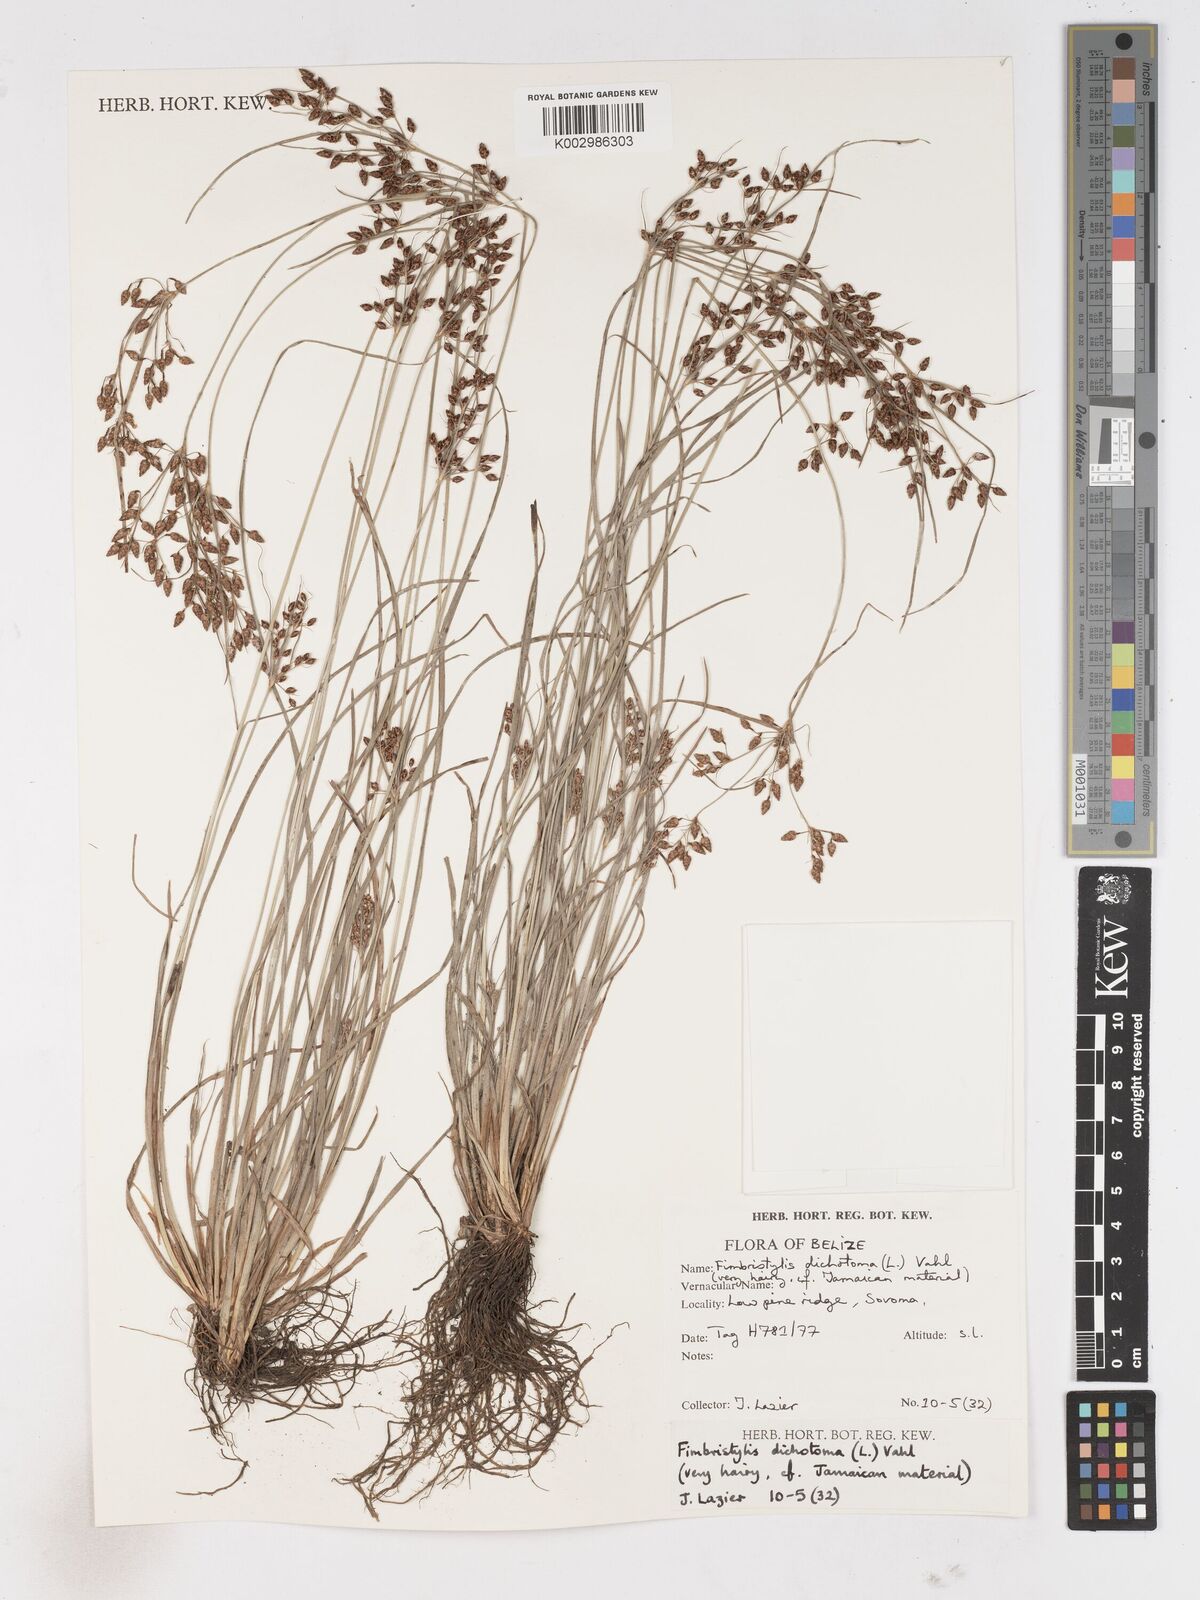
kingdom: Plantae
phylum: Tracheophyta
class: Liliopsida
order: Poales
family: Cyperaceae
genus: Fimbristylis
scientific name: Fimbristylis dichotoma
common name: Forked fimbry
